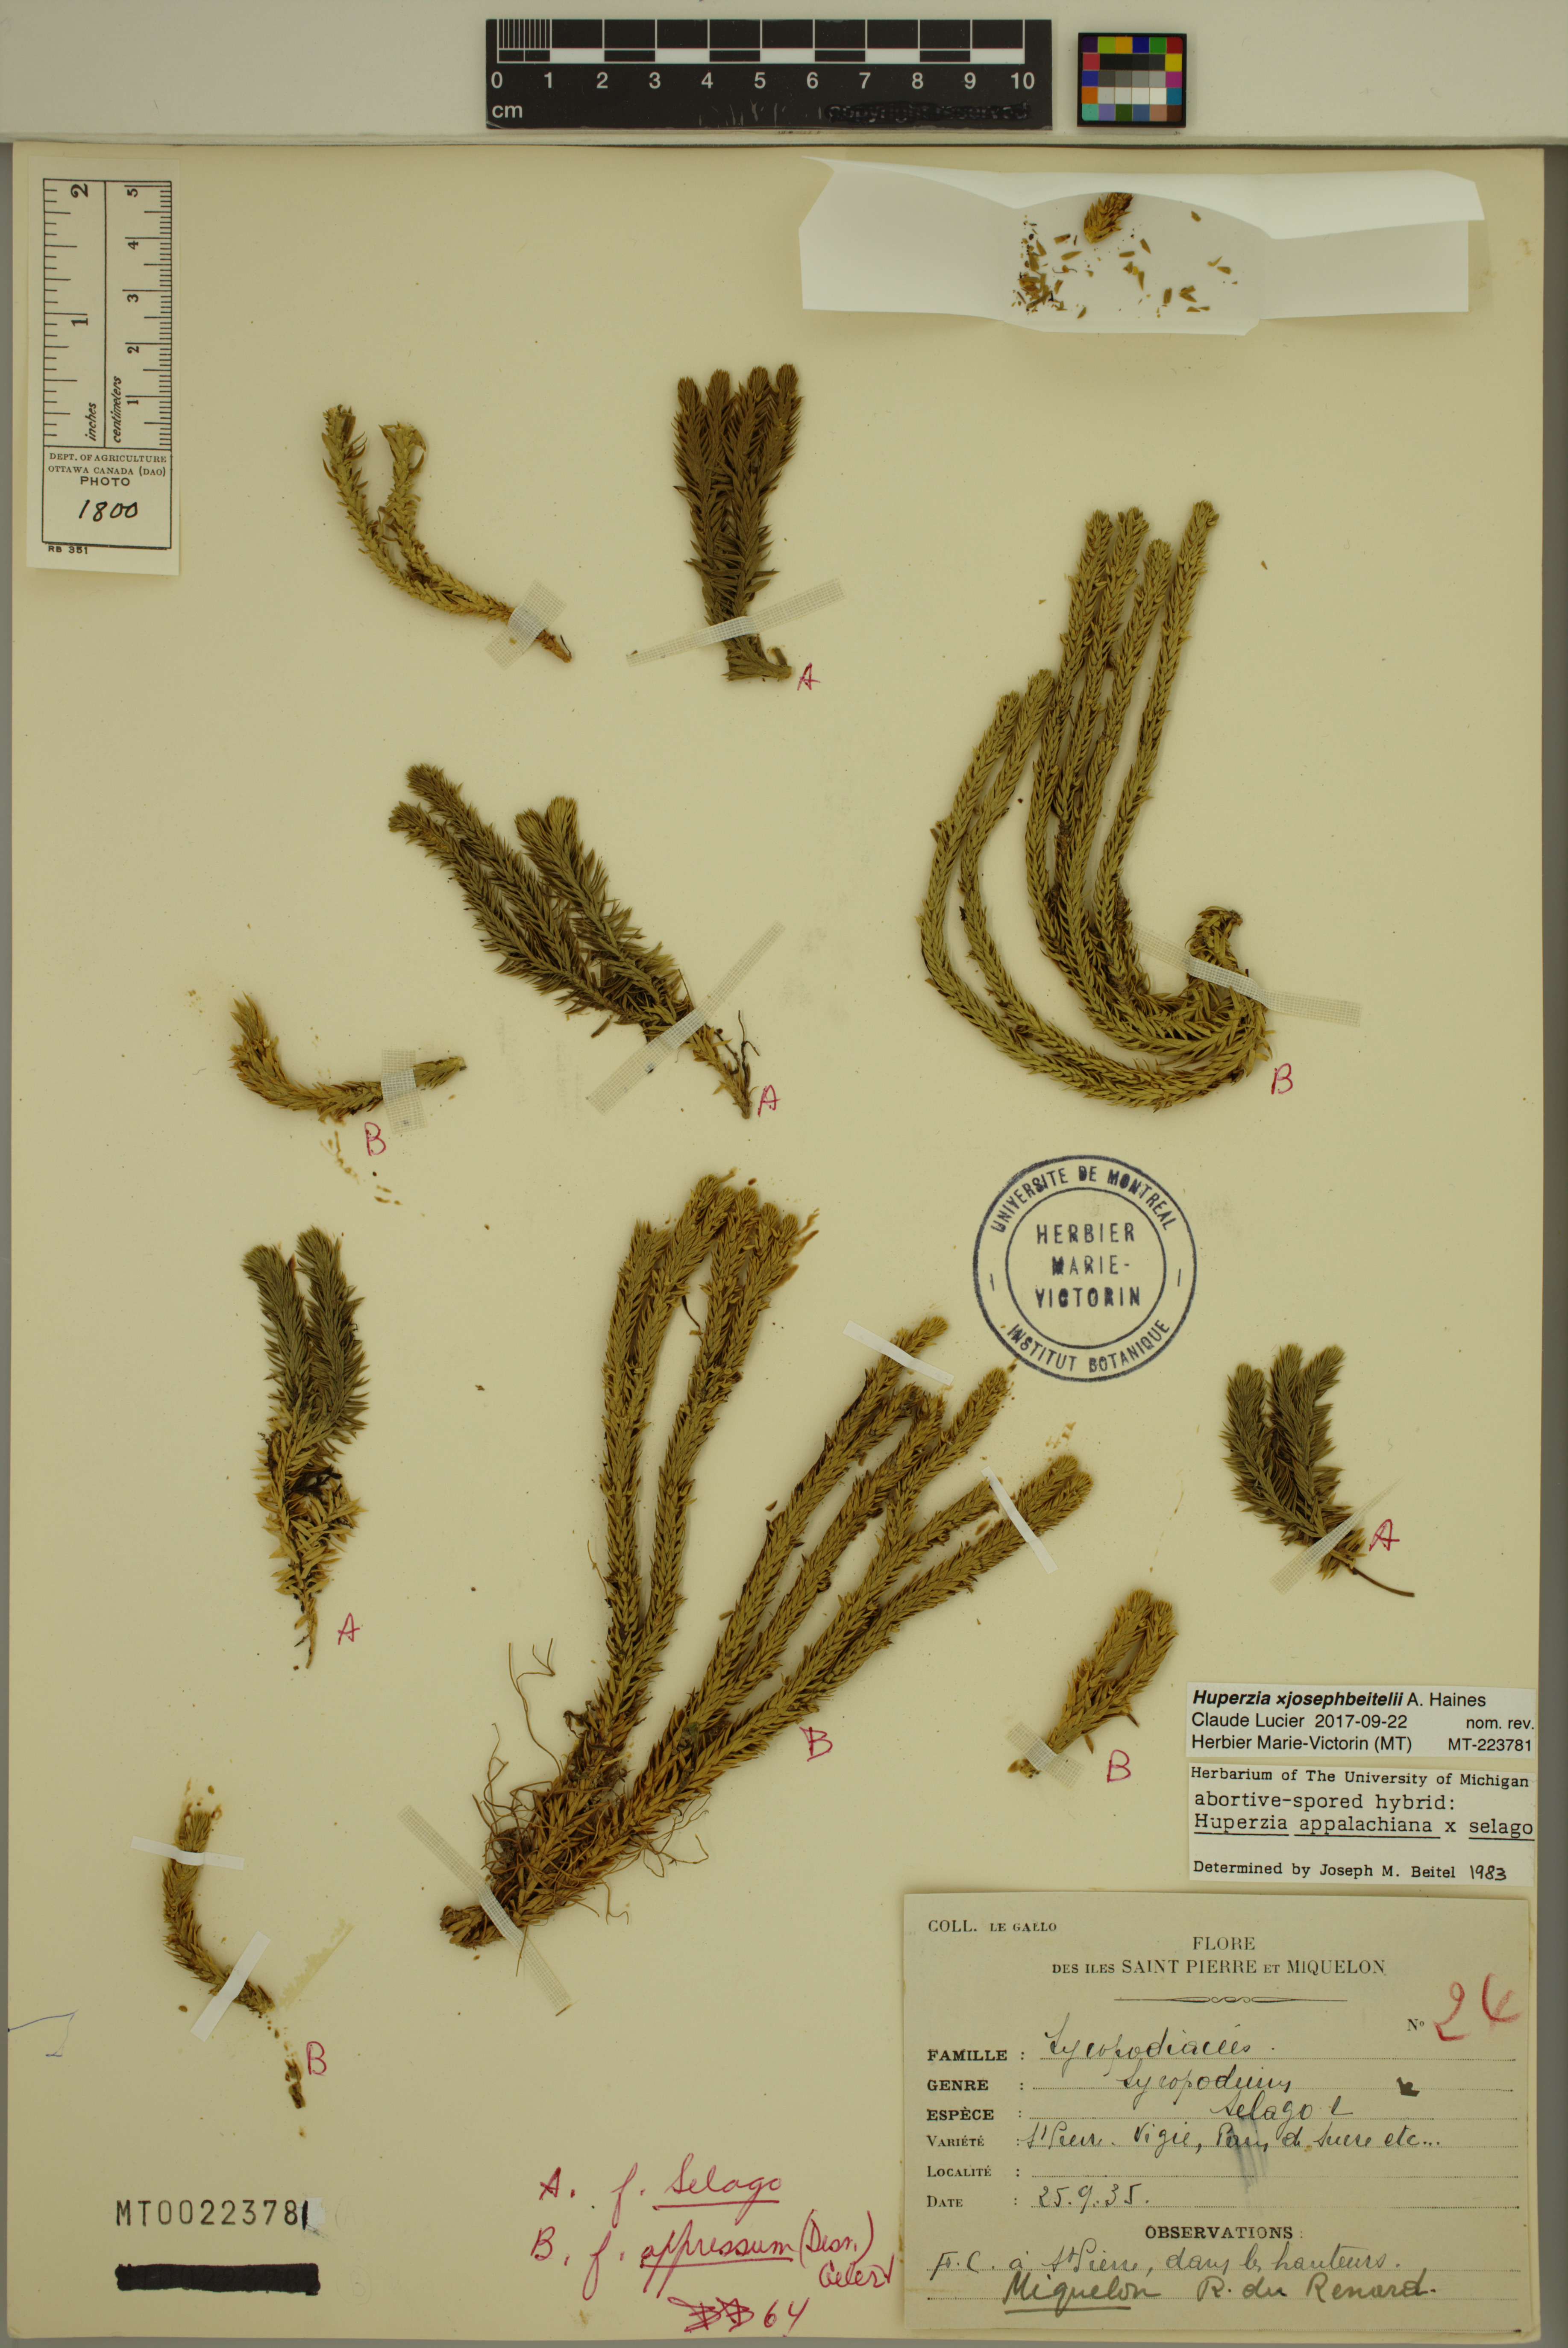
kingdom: Plantae
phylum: Tracheophyta
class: Lycopodiopsida
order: Lycopodiales
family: Lycopodiaceae
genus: Huperzia
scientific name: Huperzia josephbeitelii
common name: Beitel's clubmoss
